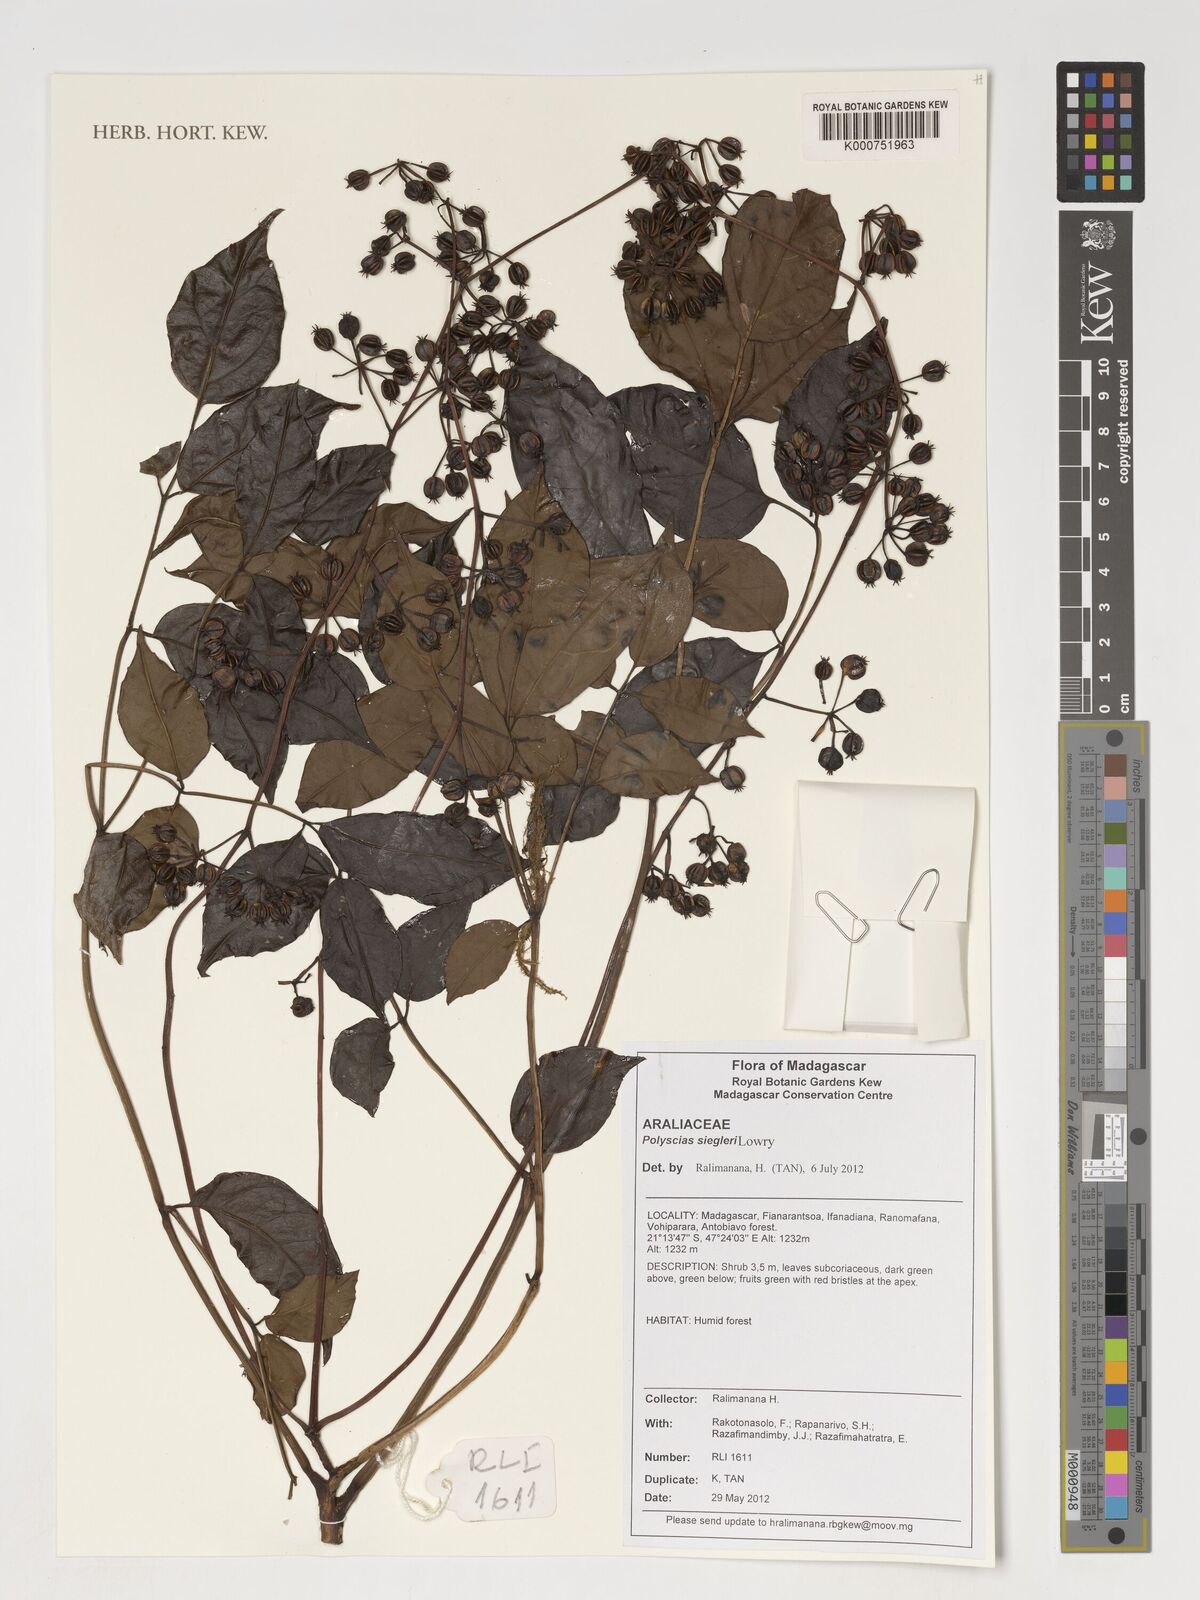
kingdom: Plantae
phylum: Tracheophyta
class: Magnoliopsida
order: Apiales
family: Araliaceae
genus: Polyscias
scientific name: Polyscias
